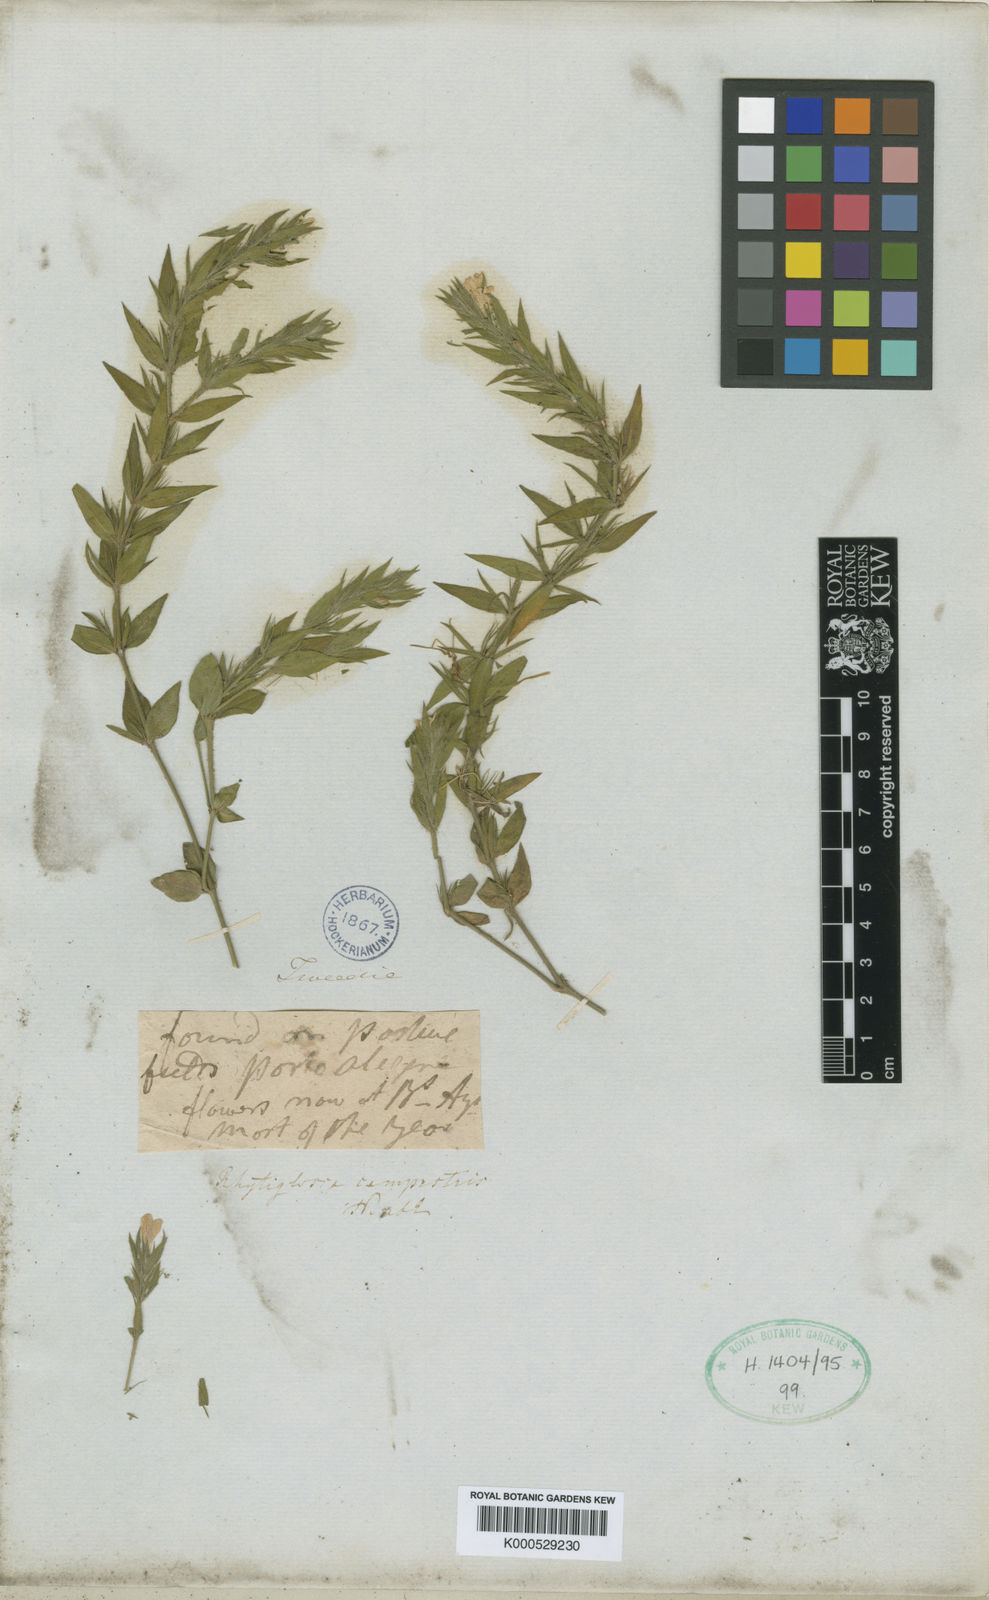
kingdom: Plantae
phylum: Tracheophyta
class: Magnoliopsida
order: Lamiales
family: Acanthaceae
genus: Justicia
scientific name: Justicia axillaris
